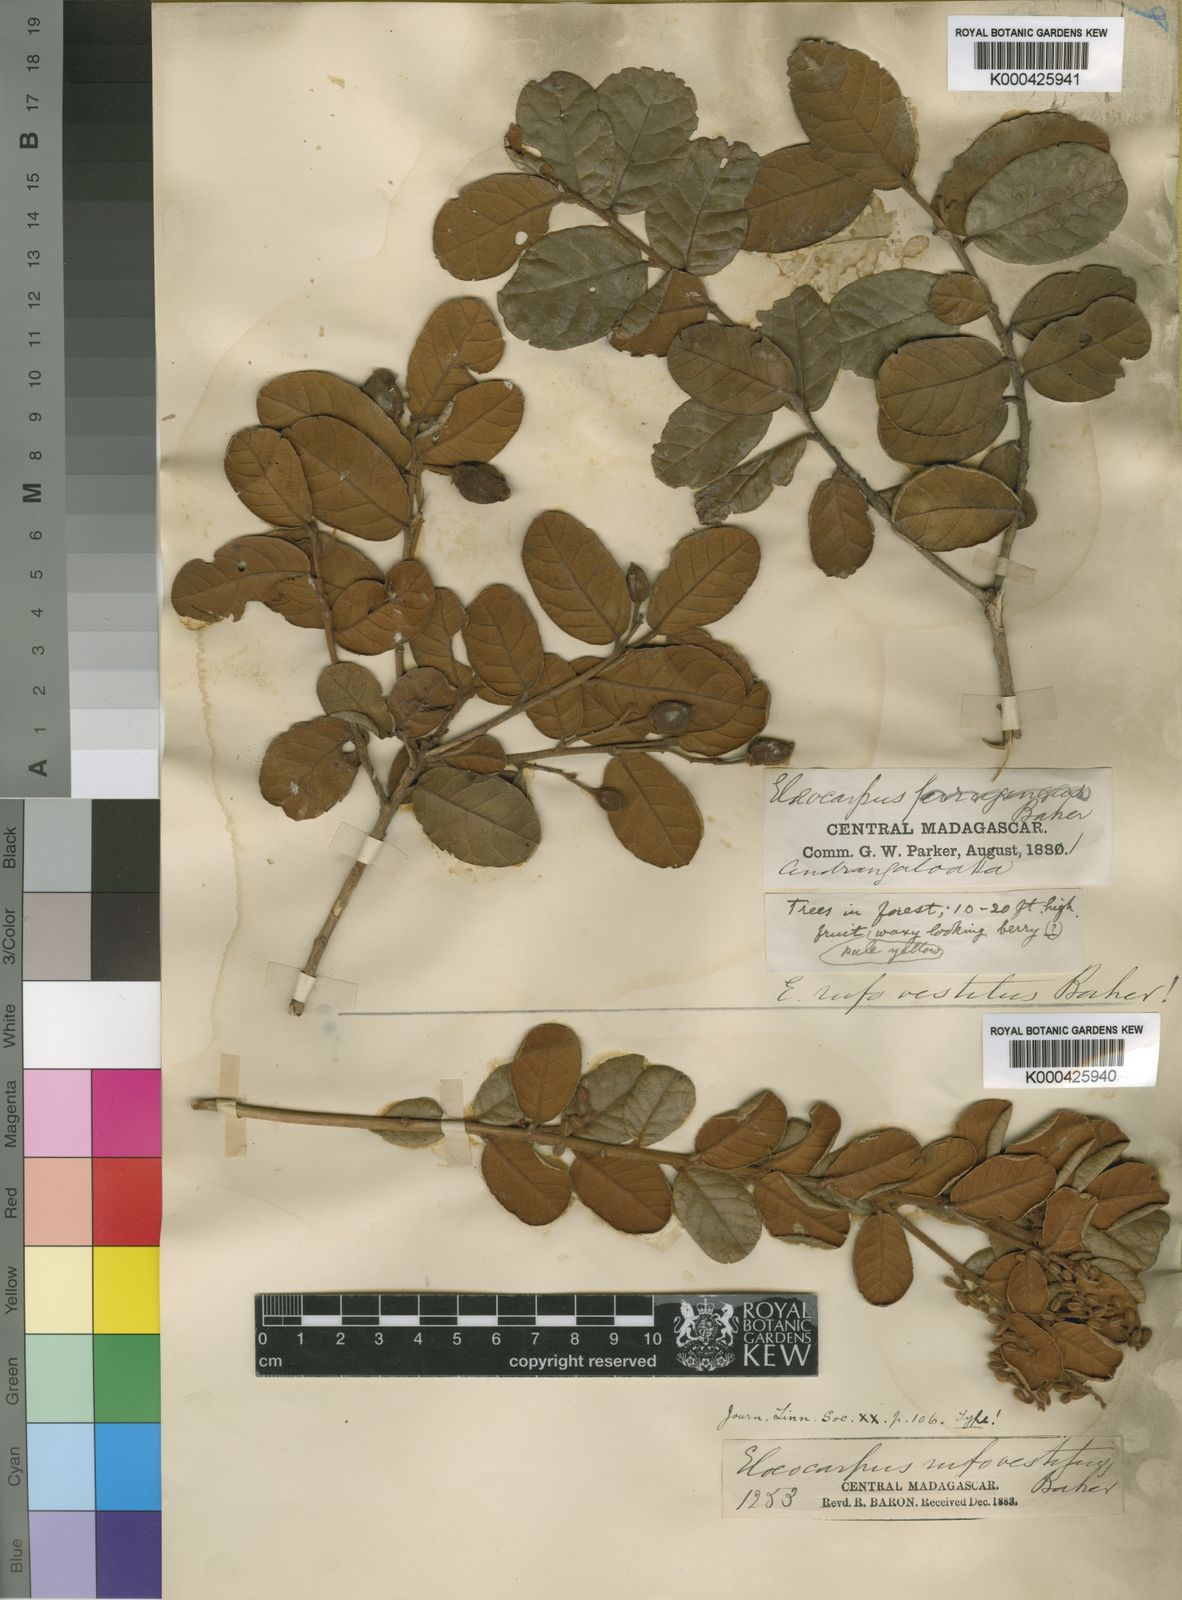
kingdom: Plantae
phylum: Tracheophyta
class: Magnoliopsida
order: Oxalidales
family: Elaeocarpaceae
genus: Elaeocarpus
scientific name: Elaeocarpus rufovestitus
